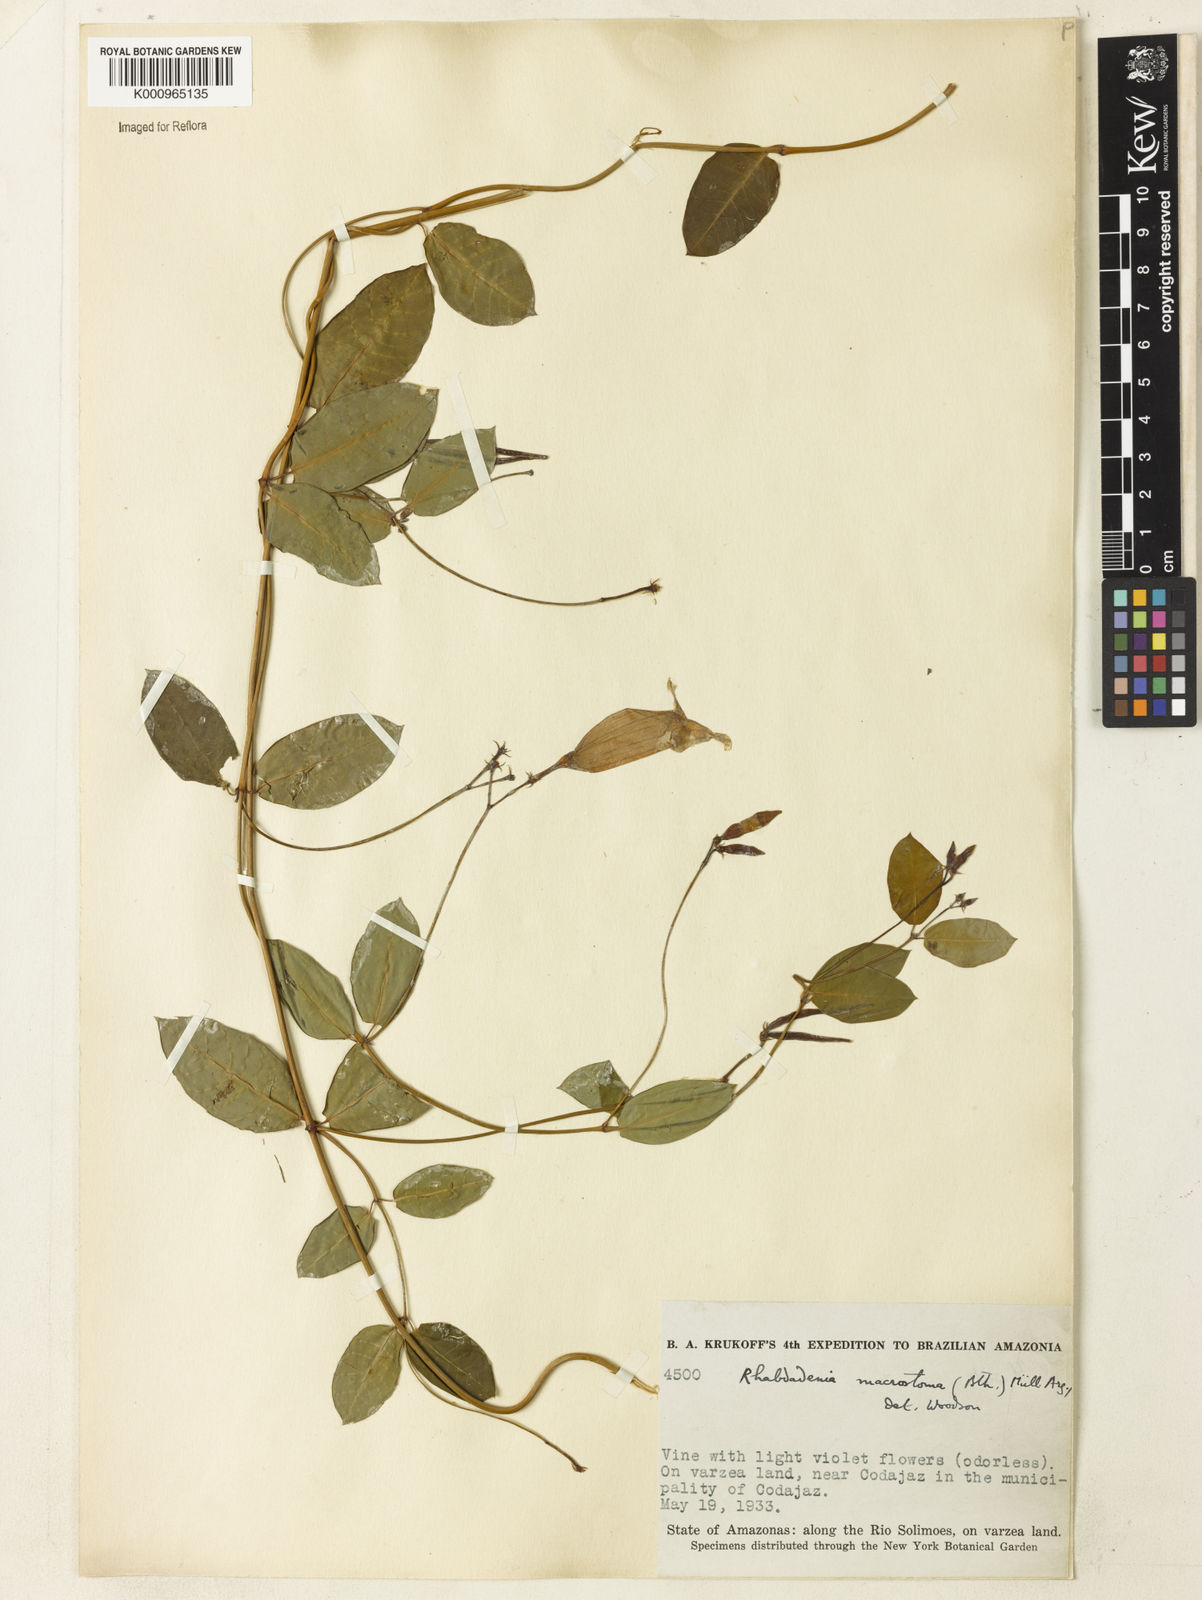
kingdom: Plantae
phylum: Tracheophyta
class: Magnoliopsida
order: Gentianales
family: Apocynaceae
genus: Rhabdadenia
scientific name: Rhabdadenia madida
